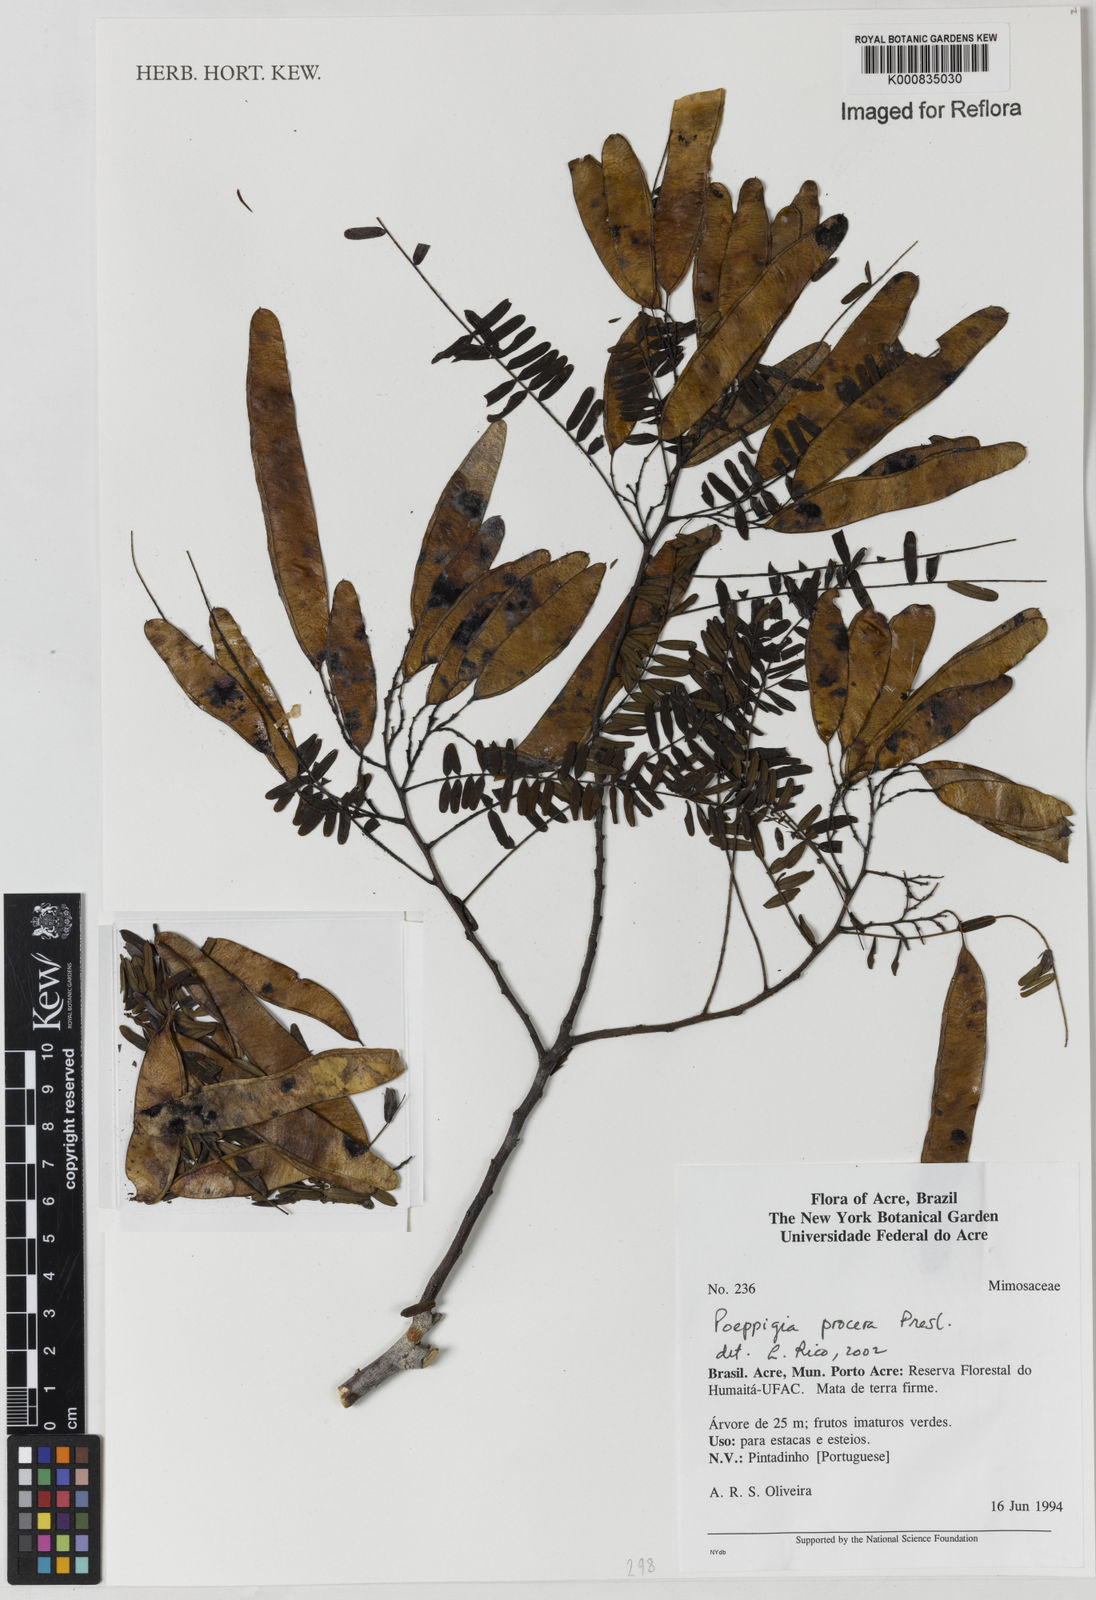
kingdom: Plantae
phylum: Tracheophyta
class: Magnoliopsida
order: Fabales
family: Fabaceae
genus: Poeppigia
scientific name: Poeppigia procera
